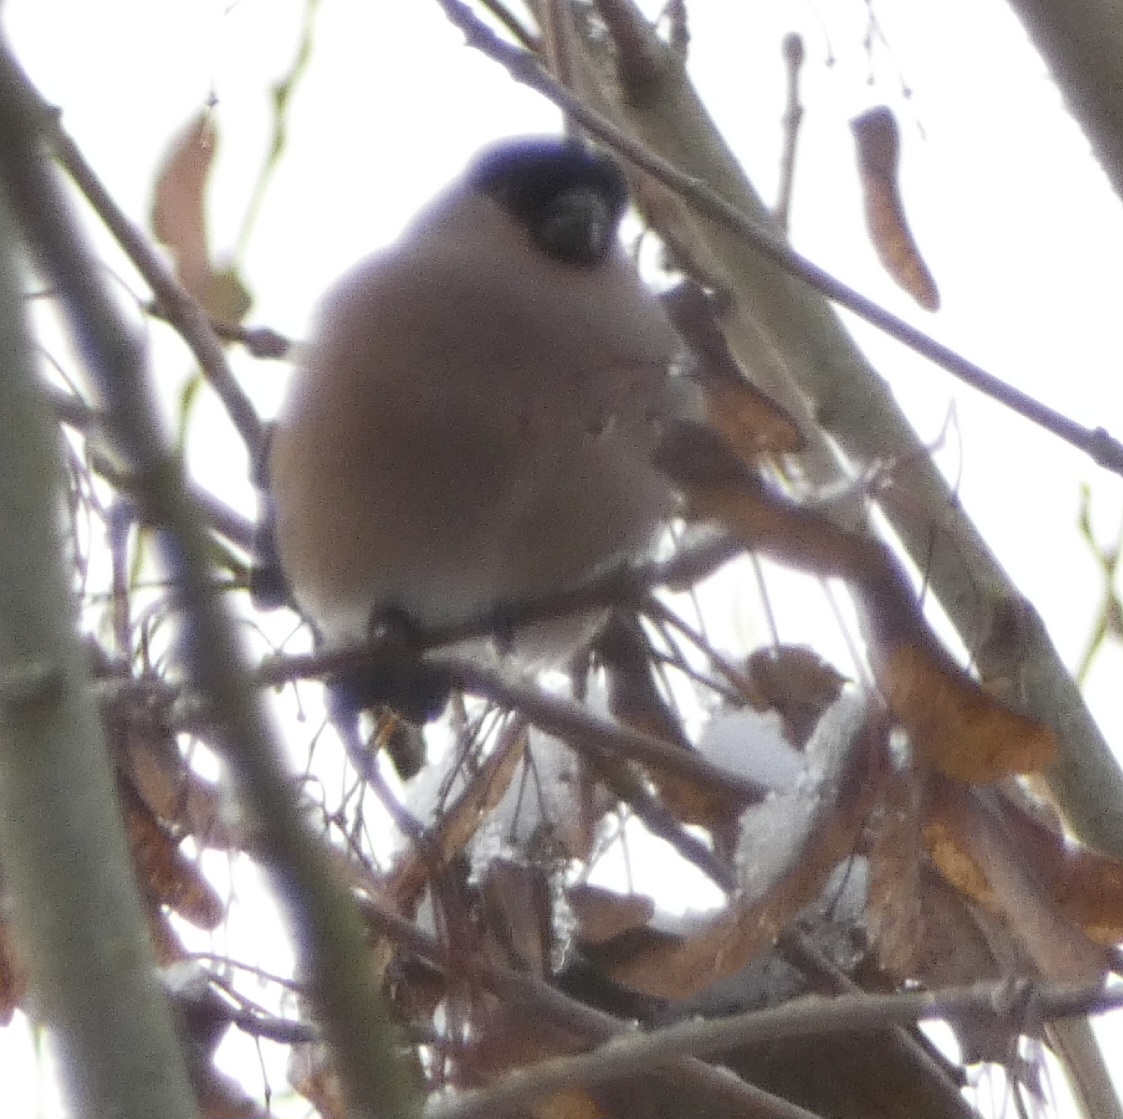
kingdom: Animalia
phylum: Chordata
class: Aves
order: Passeriformes
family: Fringillidae
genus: Pyrrhula
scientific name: Pyrrhula pyrrhula
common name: Dompap
